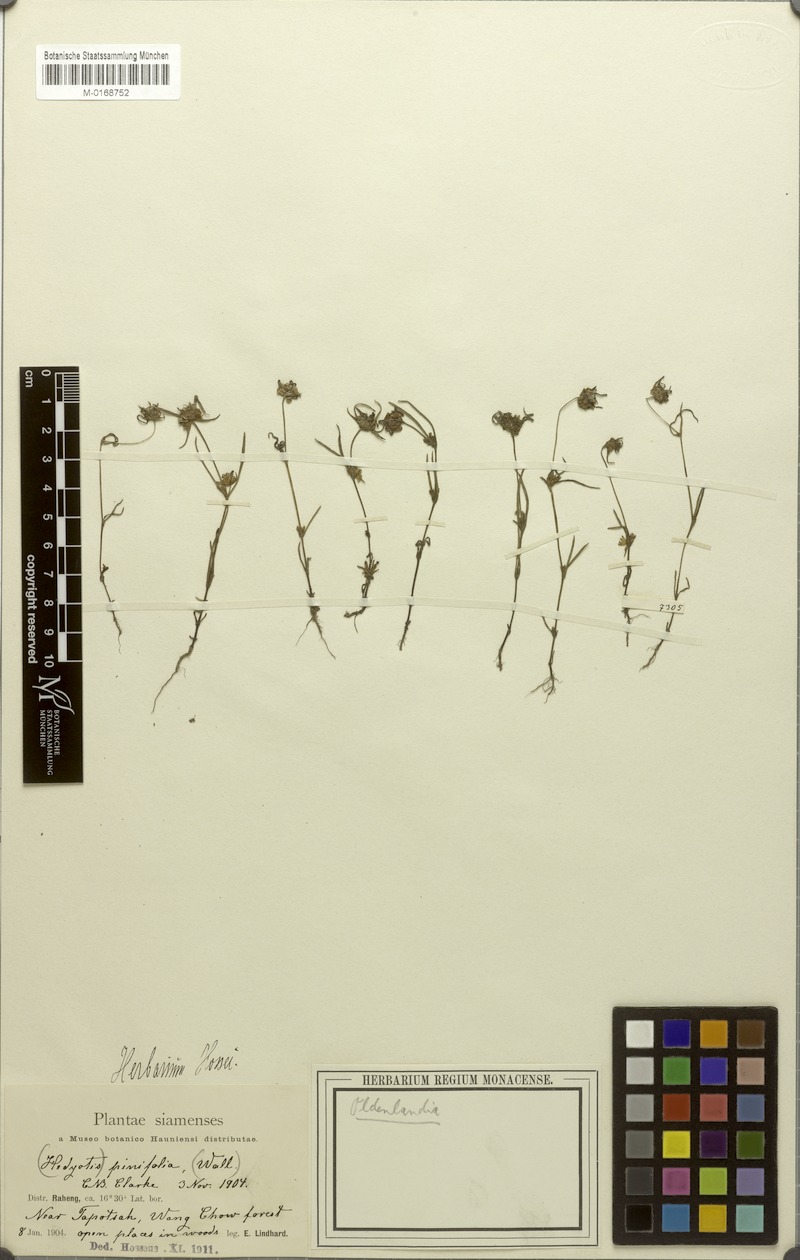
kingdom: Plantae
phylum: Tracheophyta
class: Magnoliopsida
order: Gentianales
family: Rubiaceae
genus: Scleromitrion
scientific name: Scleromitrion pinifolium
